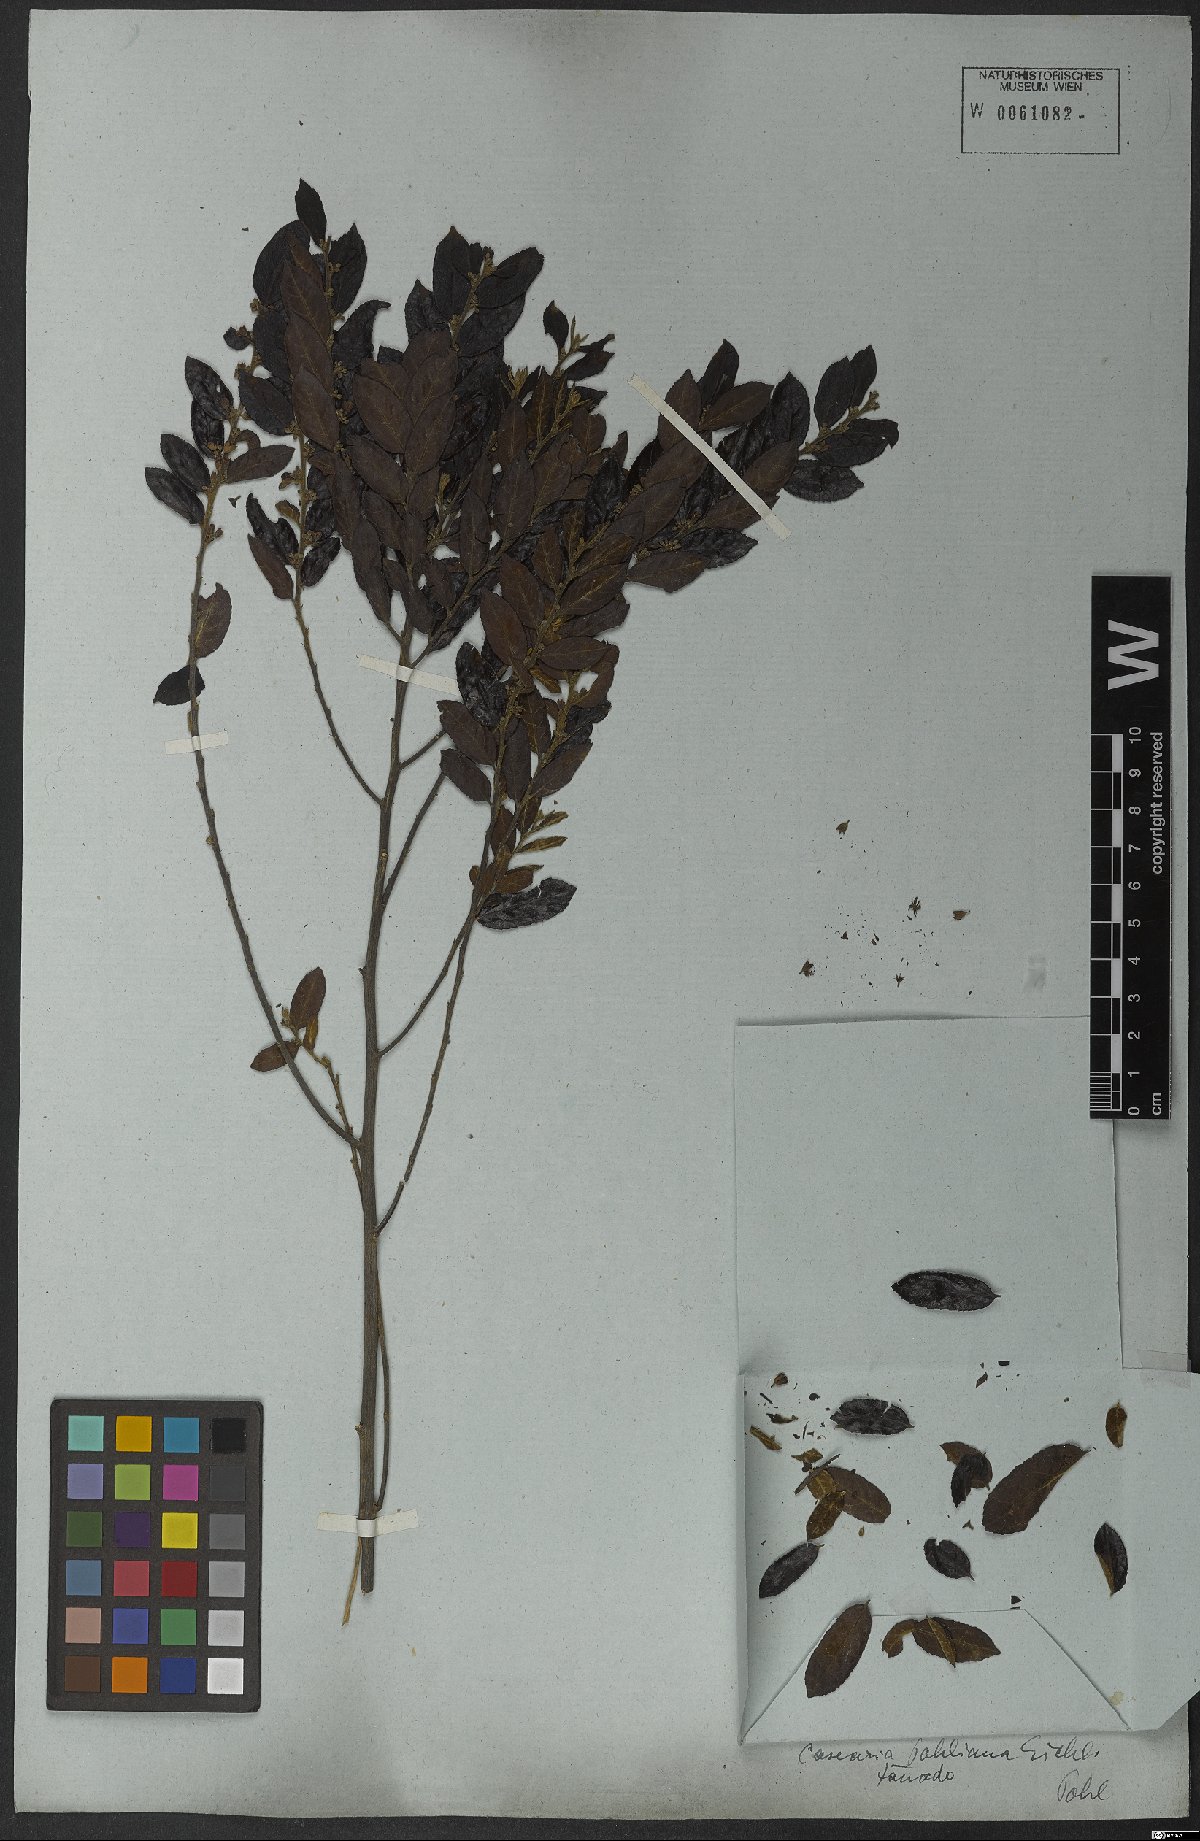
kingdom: Plantae
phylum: Tracheophyta
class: Magnoliopsida
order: Malpighiales
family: Salicaceae
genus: Casearia
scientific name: Casearia rufescens
